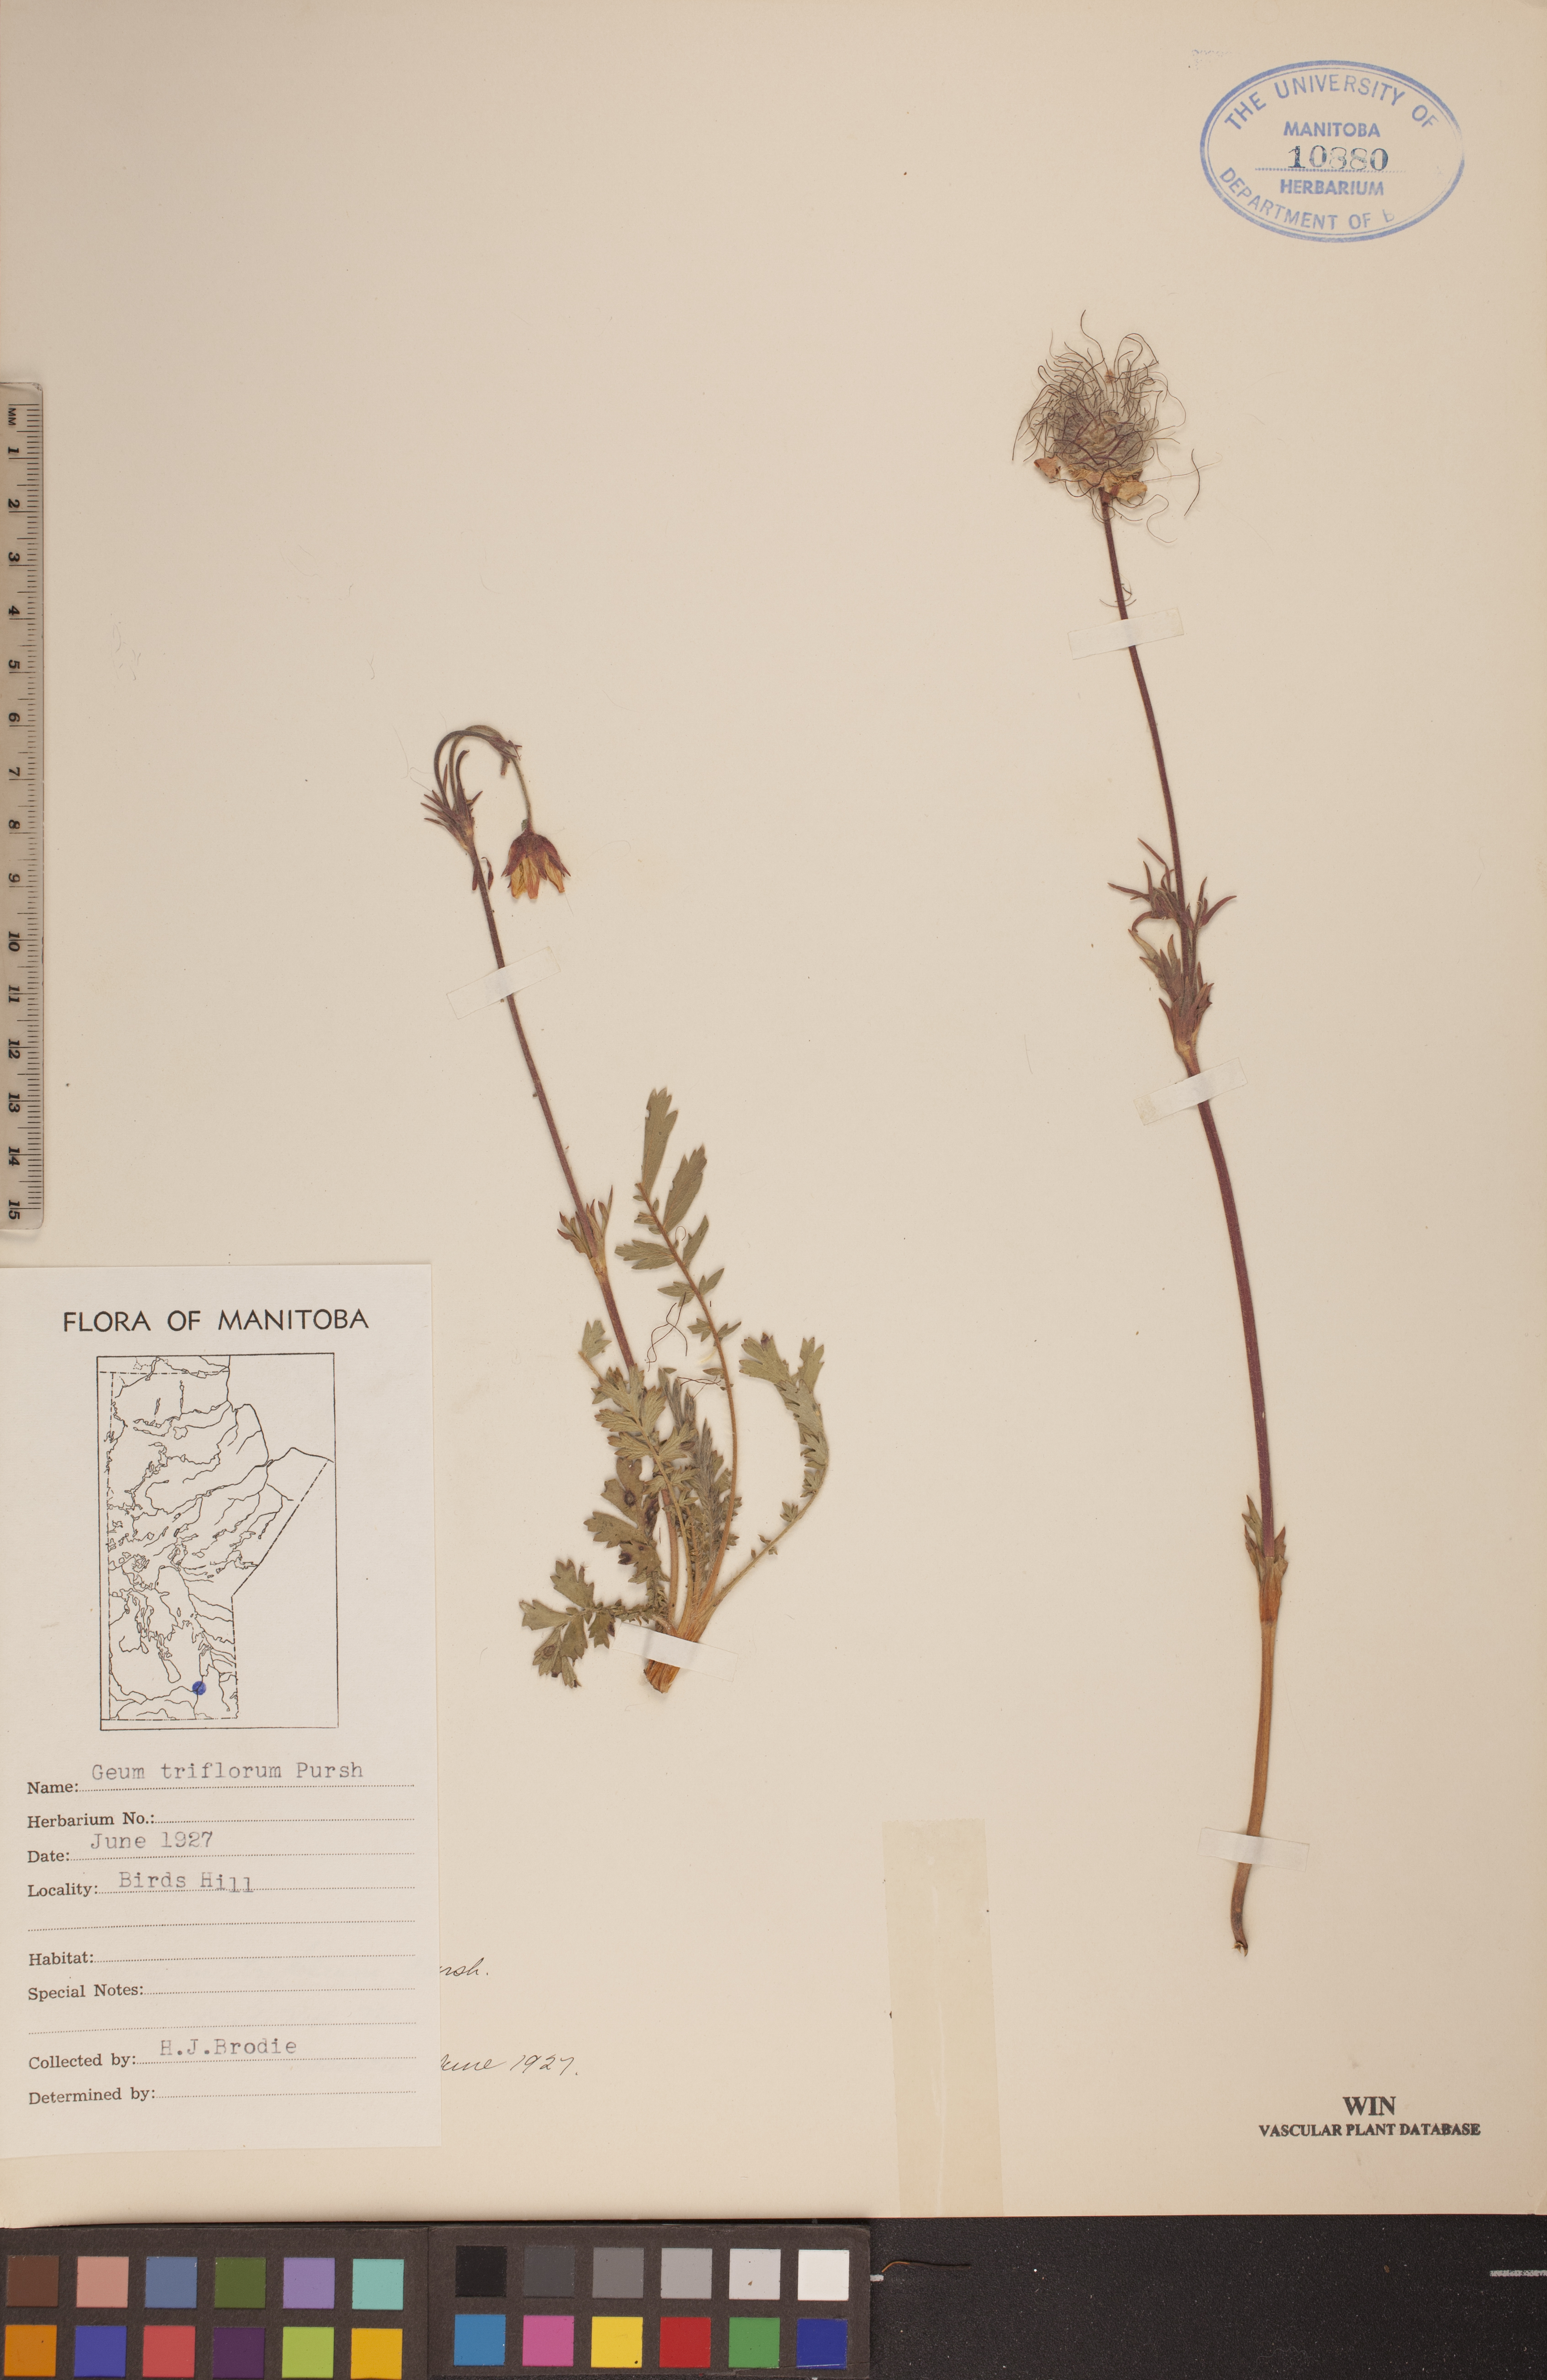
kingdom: Plantae
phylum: Tracheophyta
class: Magnoliopsida
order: Rosales
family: Rosaceae
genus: Geum
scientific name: Geum triflorum
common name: Old man's whiskers
